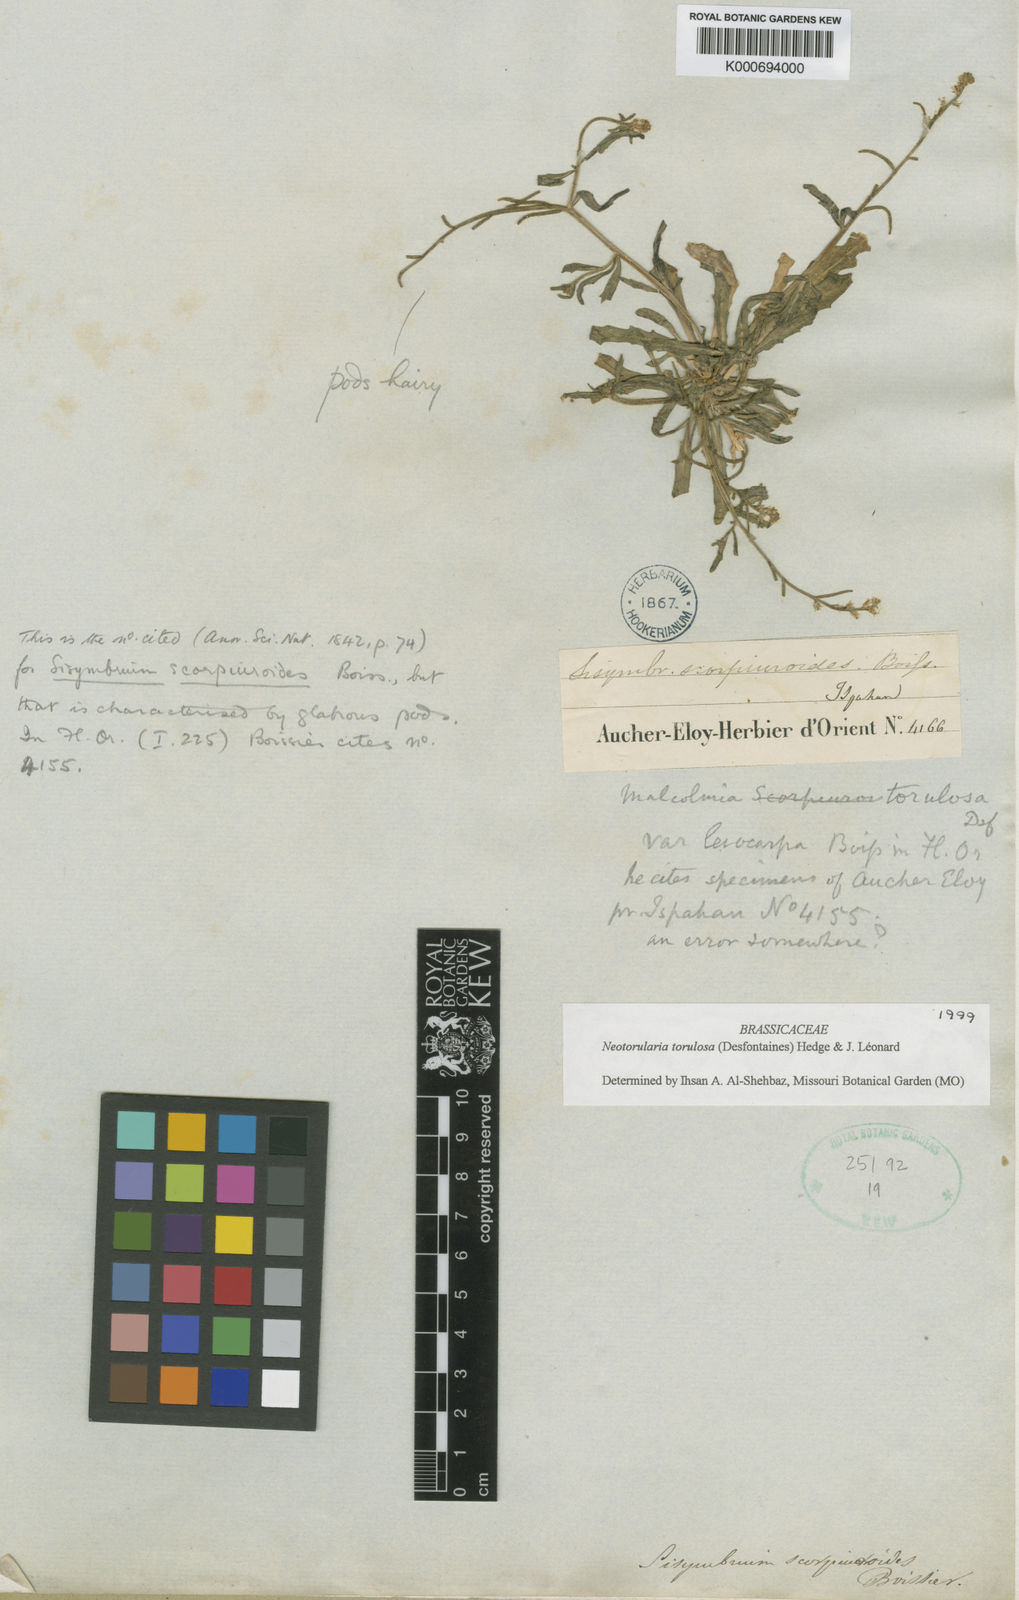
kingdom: Plantae
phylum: Tracheophyta
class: Magnoliopsida
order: Brassicales
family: Brassicaceae
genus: Neotorularia
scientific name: Neotorularia
